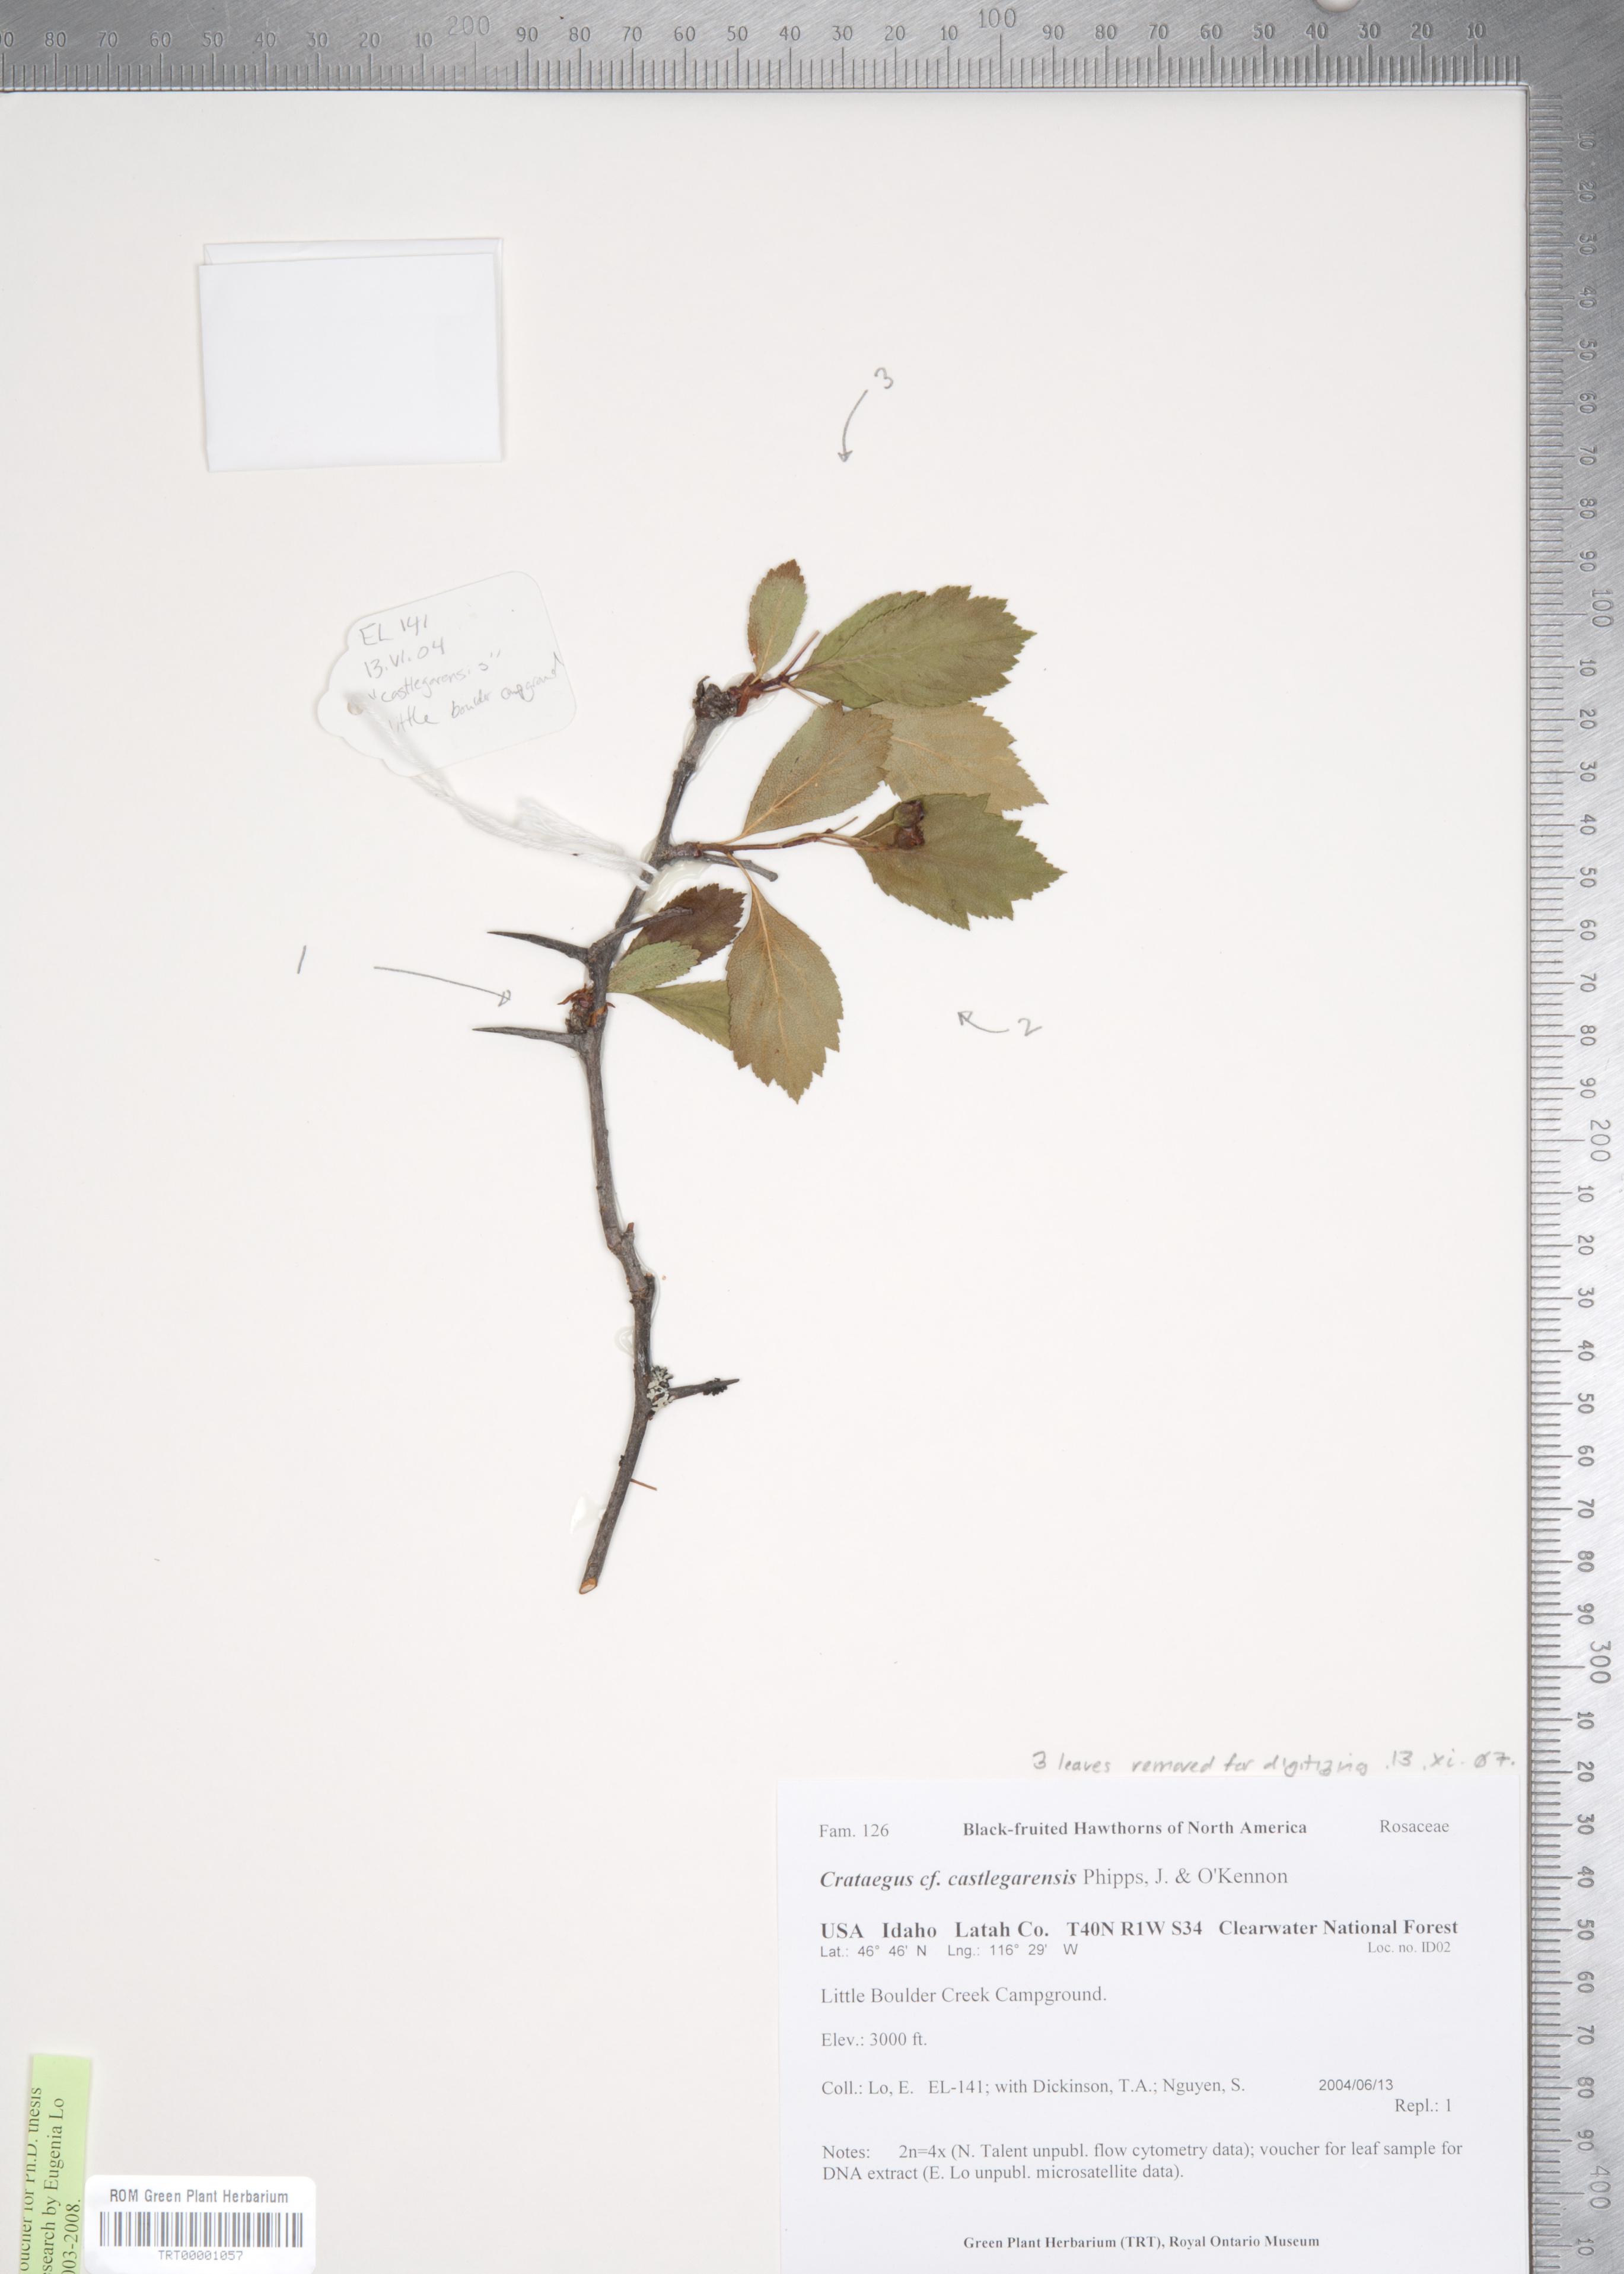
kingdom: Plantae
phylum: Tracheophyta
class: Magnoliopsida
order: Rosales
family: Rosaceae
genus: Crataegus
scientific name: Crataegus castlegarensis
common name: Castlegar hawthorn
